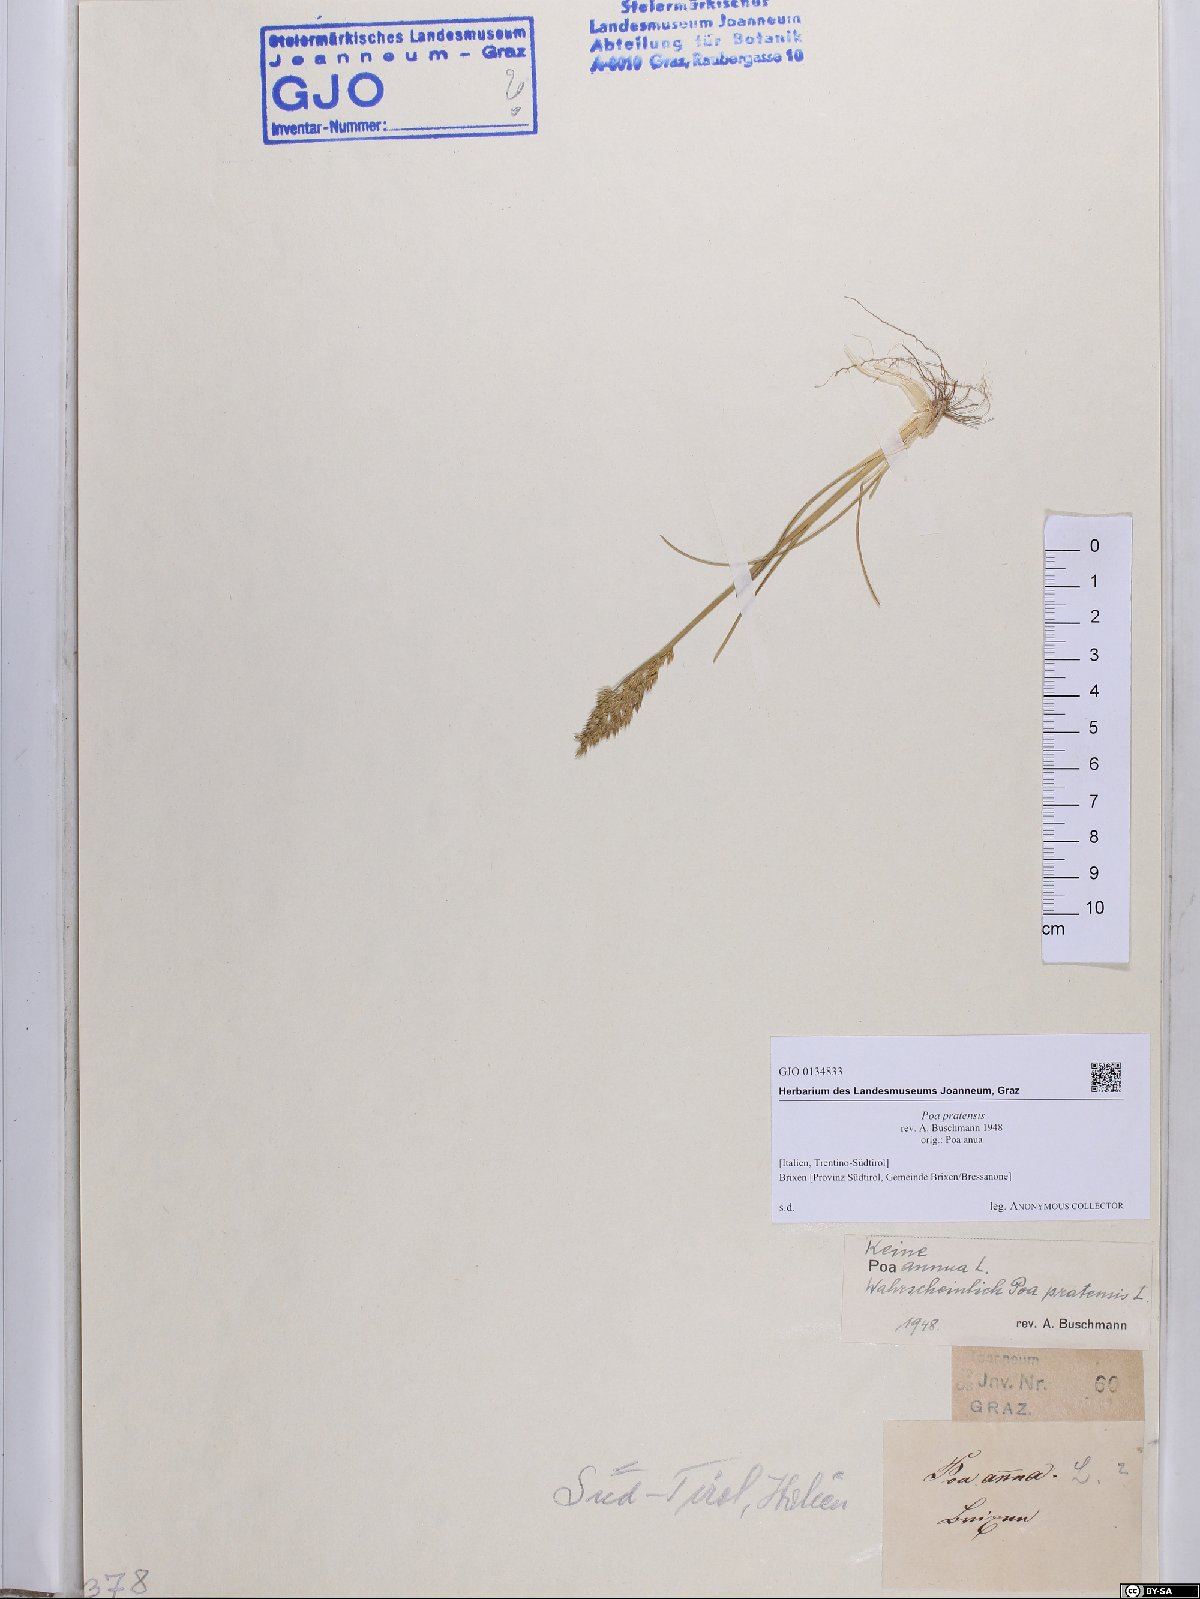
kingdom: Plantae
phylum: Tracheophyta
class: Liliopsida
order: Poales
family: Poaceae
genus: Poa
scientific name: Poa pratensis
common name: Kentucky bluegrass
